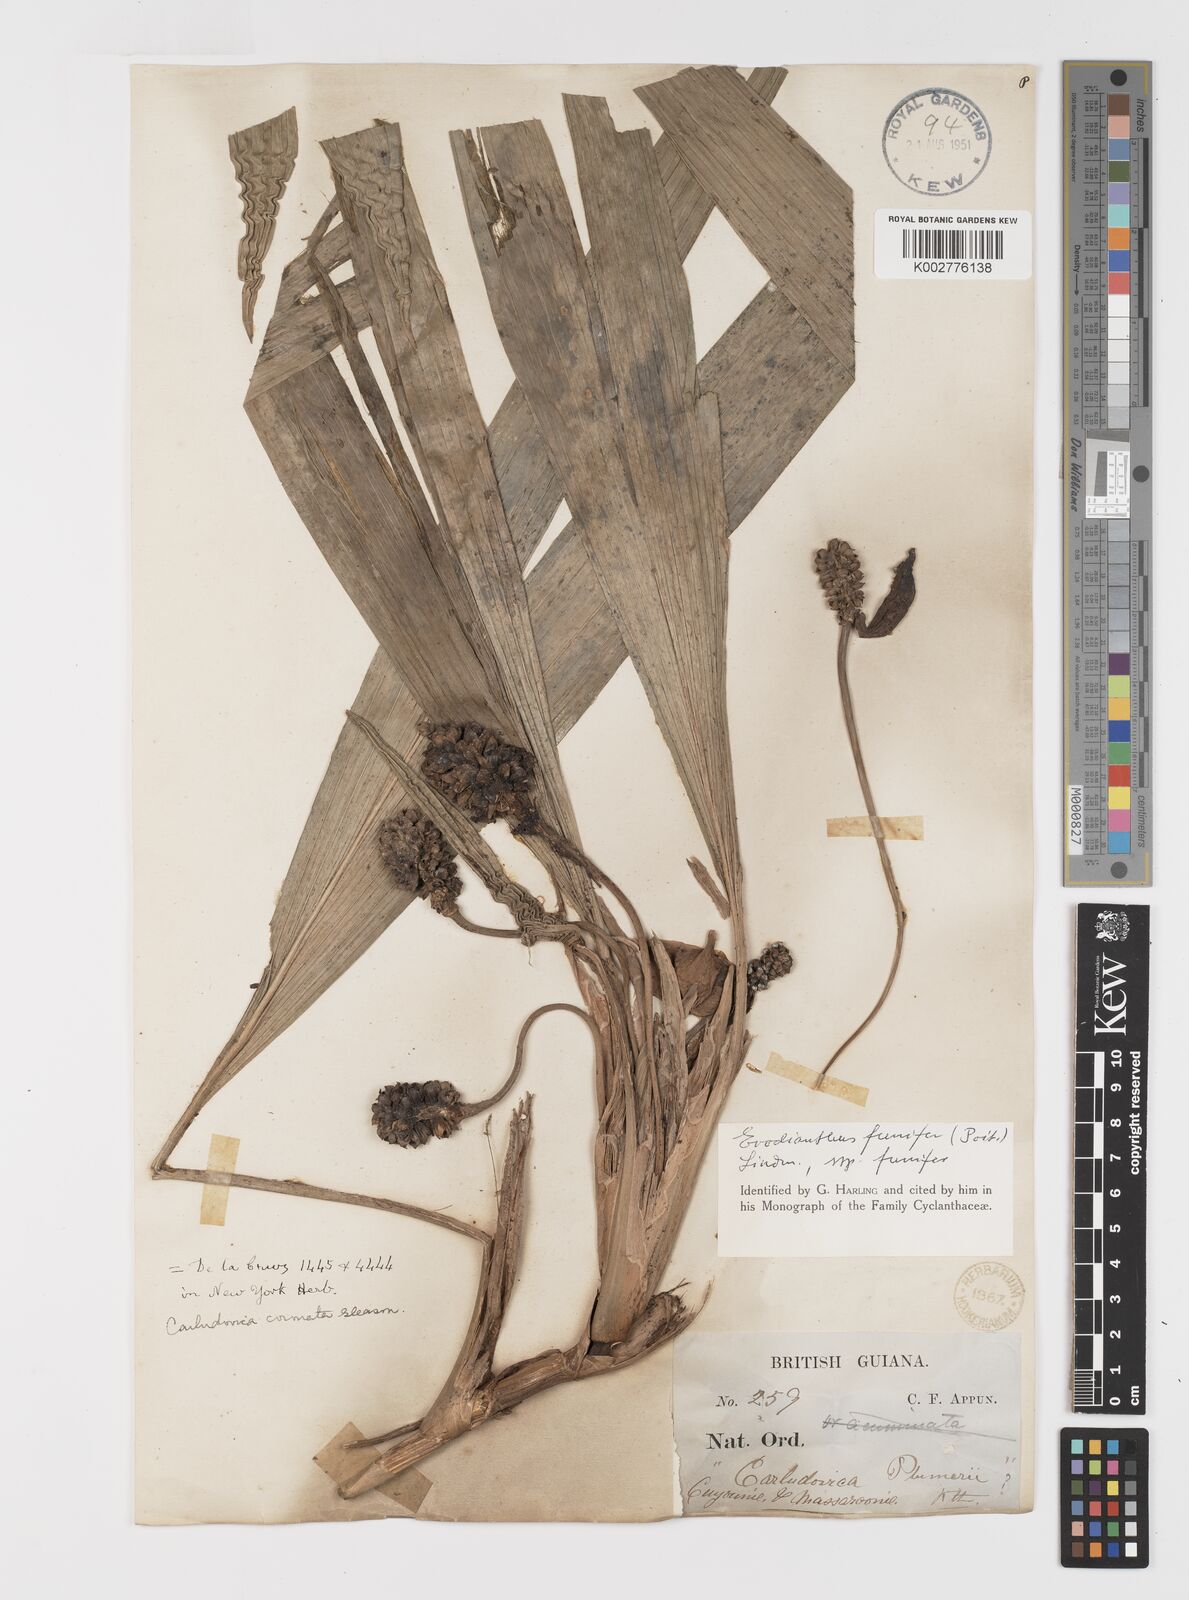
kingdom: Plantae
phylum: Tracheophyta
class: Liliopsida
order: Pandanales
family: Cyclanthaceae
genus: Evodianthus
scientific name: Evodianthus funifer
